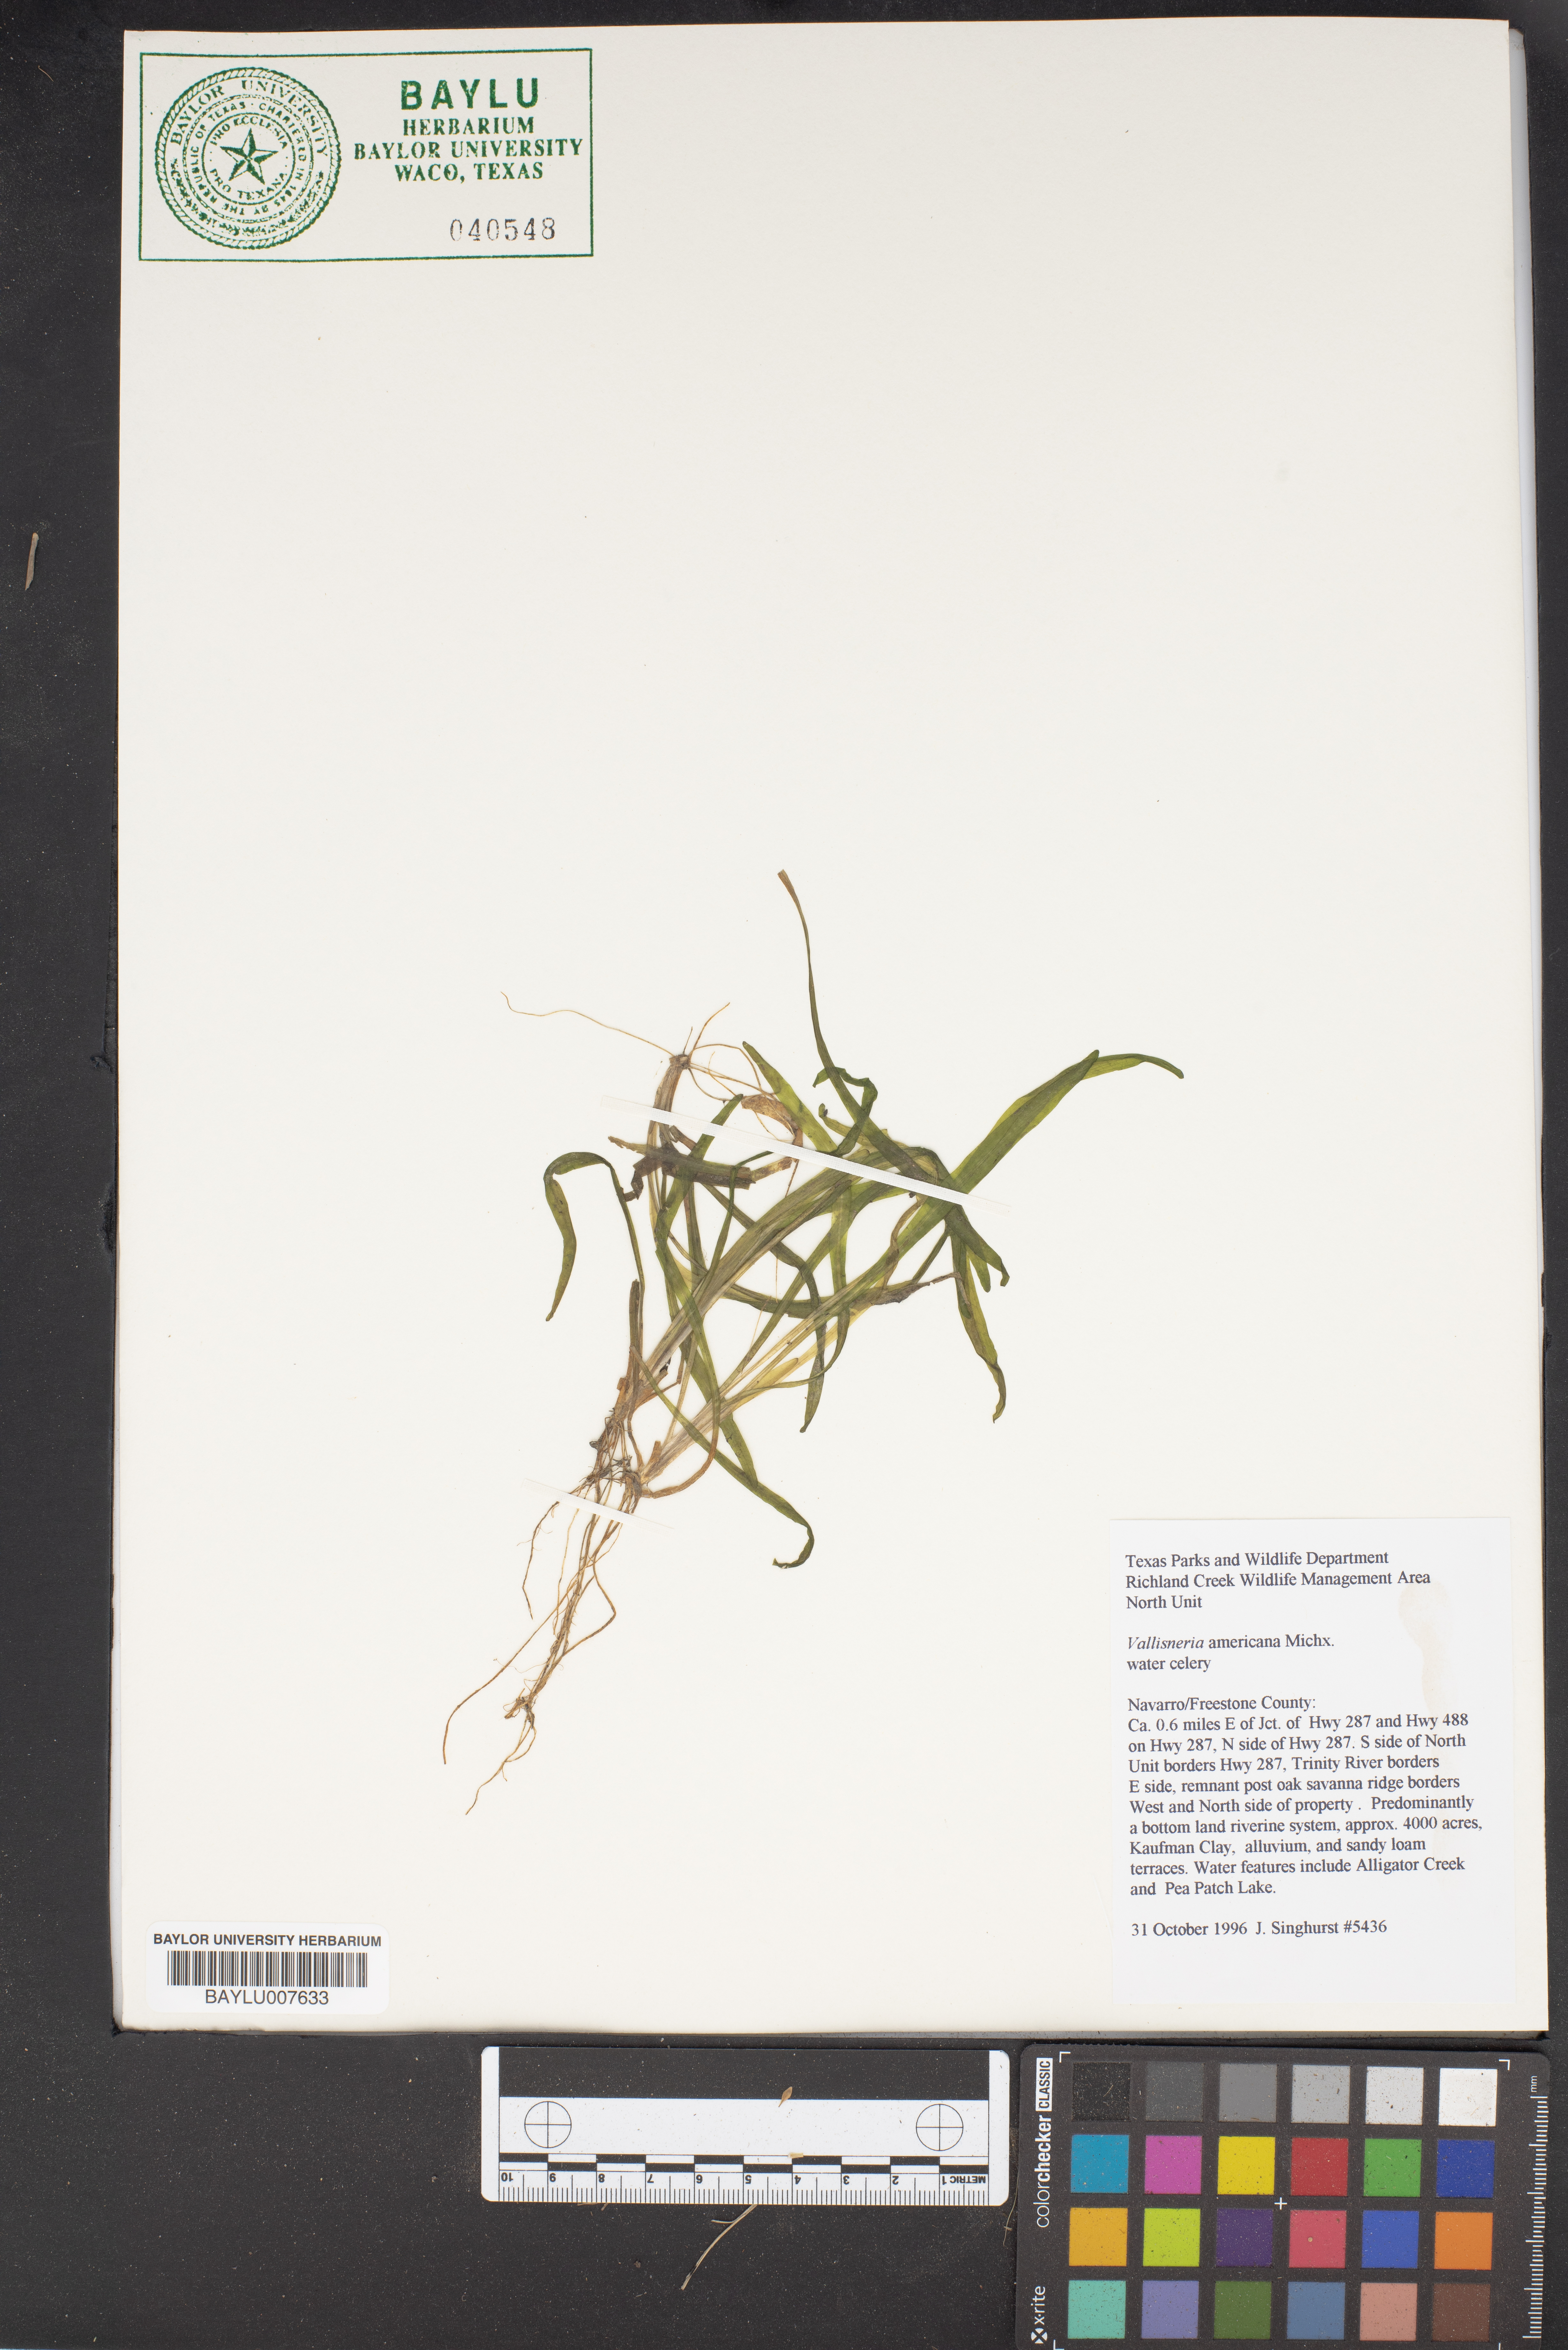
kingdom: Plantae
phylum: Tracheophyta
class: Liliopsida
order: Alismatales
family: Hydrocharitaceae
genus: Vallisneria
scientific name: Vallisneria americana
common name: American eelgrass
